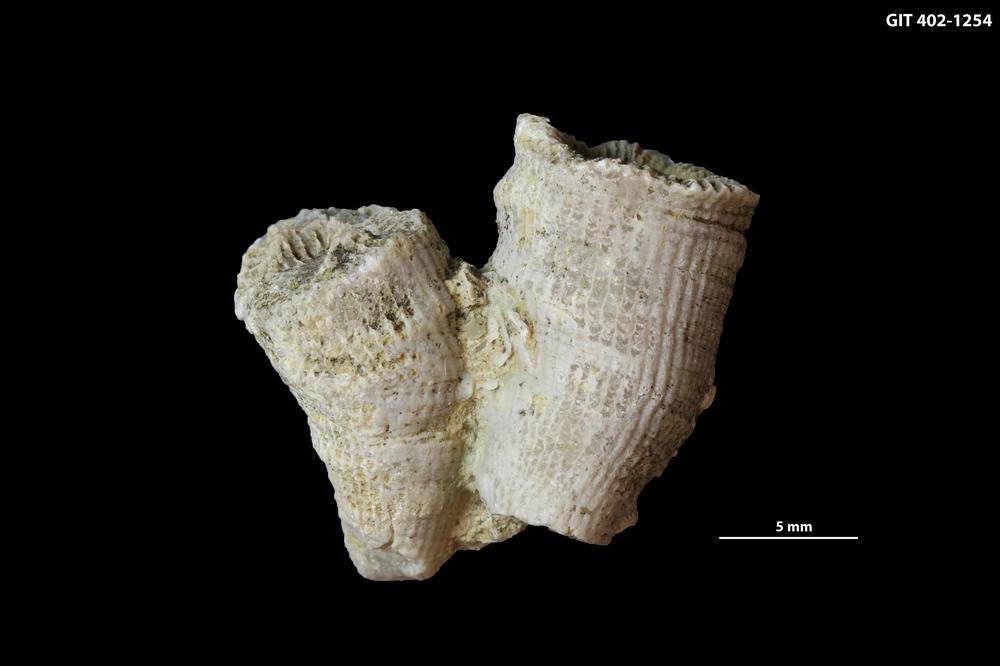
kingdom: Animalia
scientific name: Animalia
